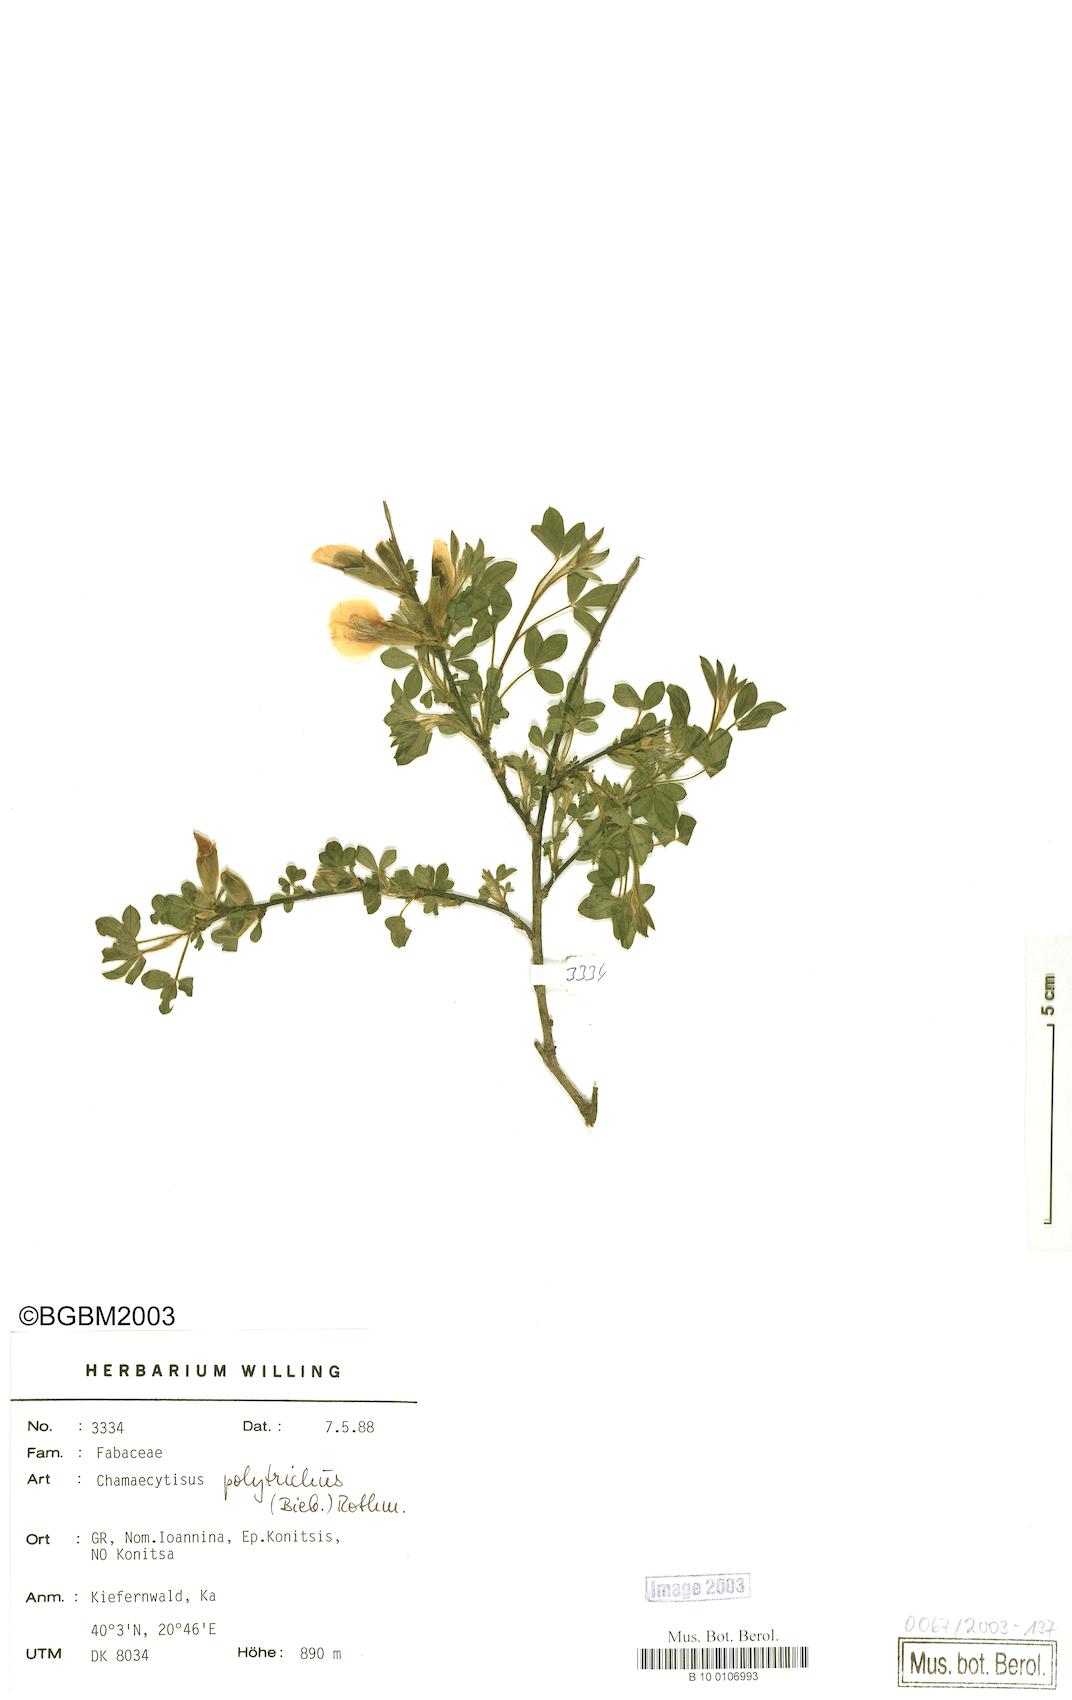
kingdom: Plantae
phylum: Tracheophyta
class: Magnoliopsida
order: Fabales
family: Fabaceae
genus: Chamaecytisus
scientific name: Chamaecytisus hirsutus
